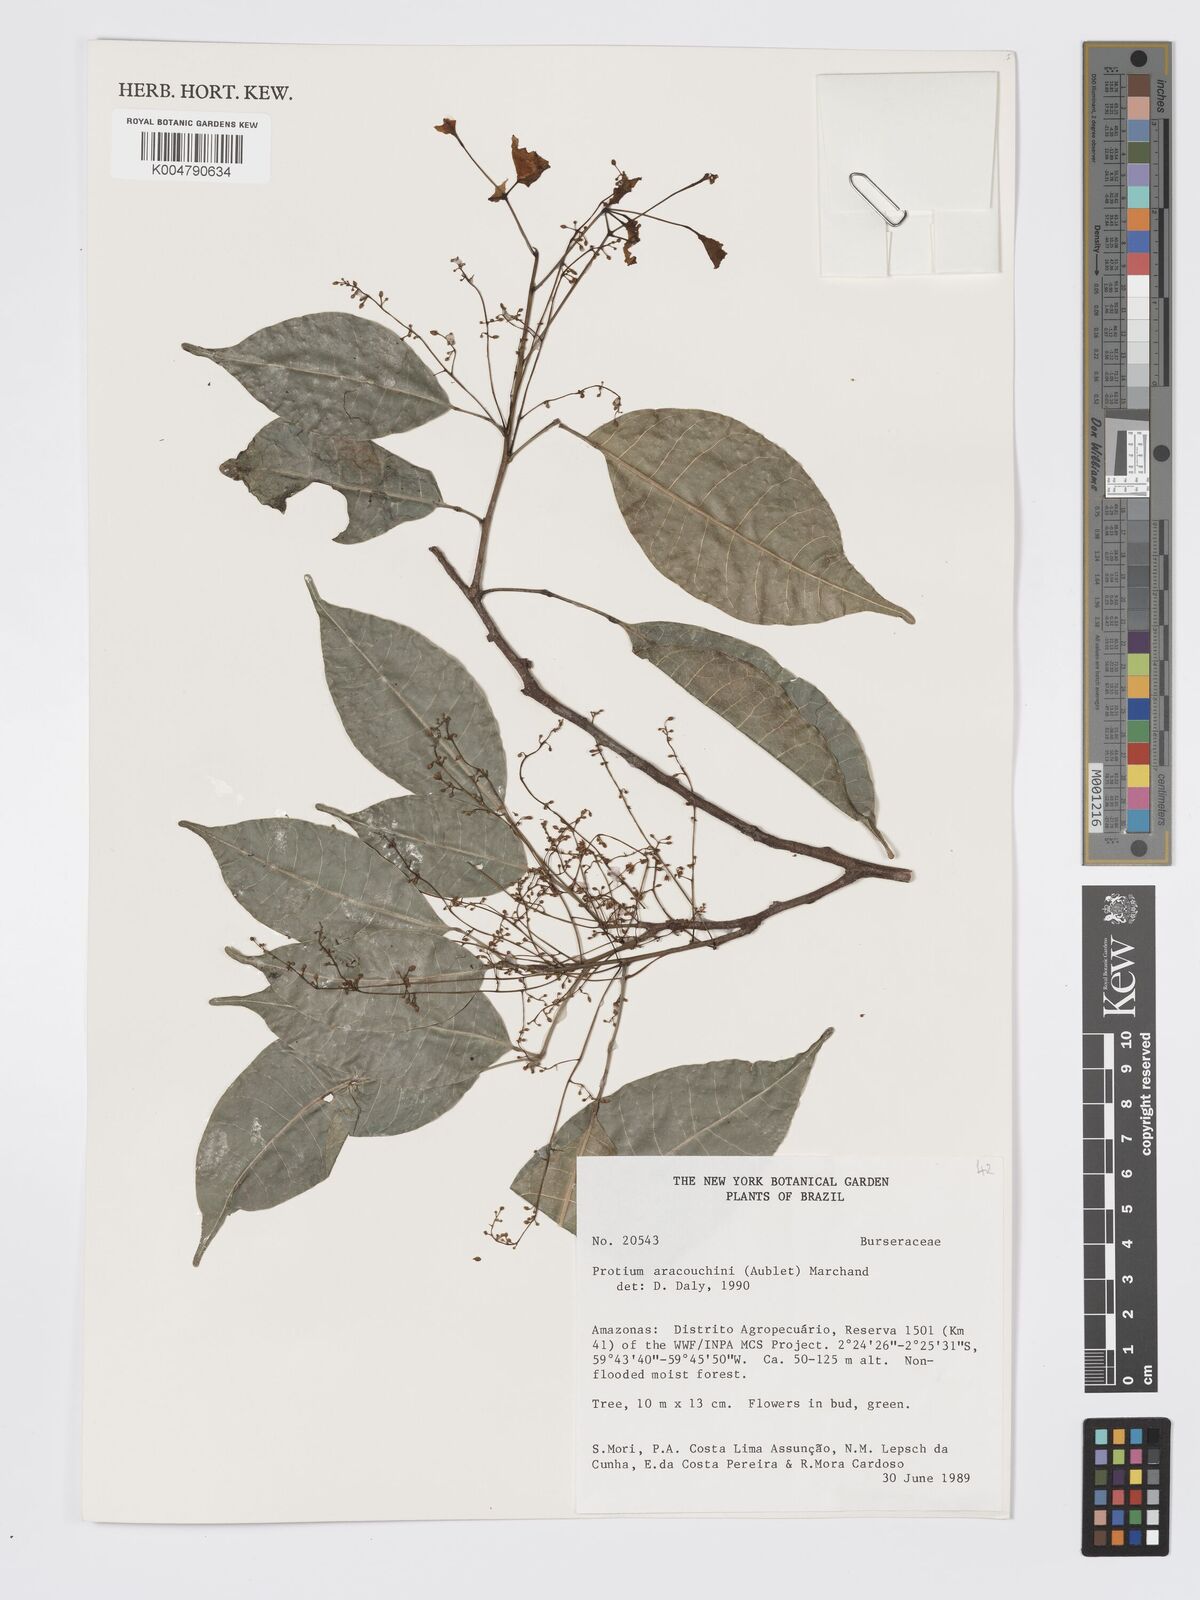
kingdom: Plantae
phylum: Tracheophyta
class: Magnoliopsida
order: Sapindales
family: Burseraceae
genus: Protium
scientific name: Protium aracouchini
